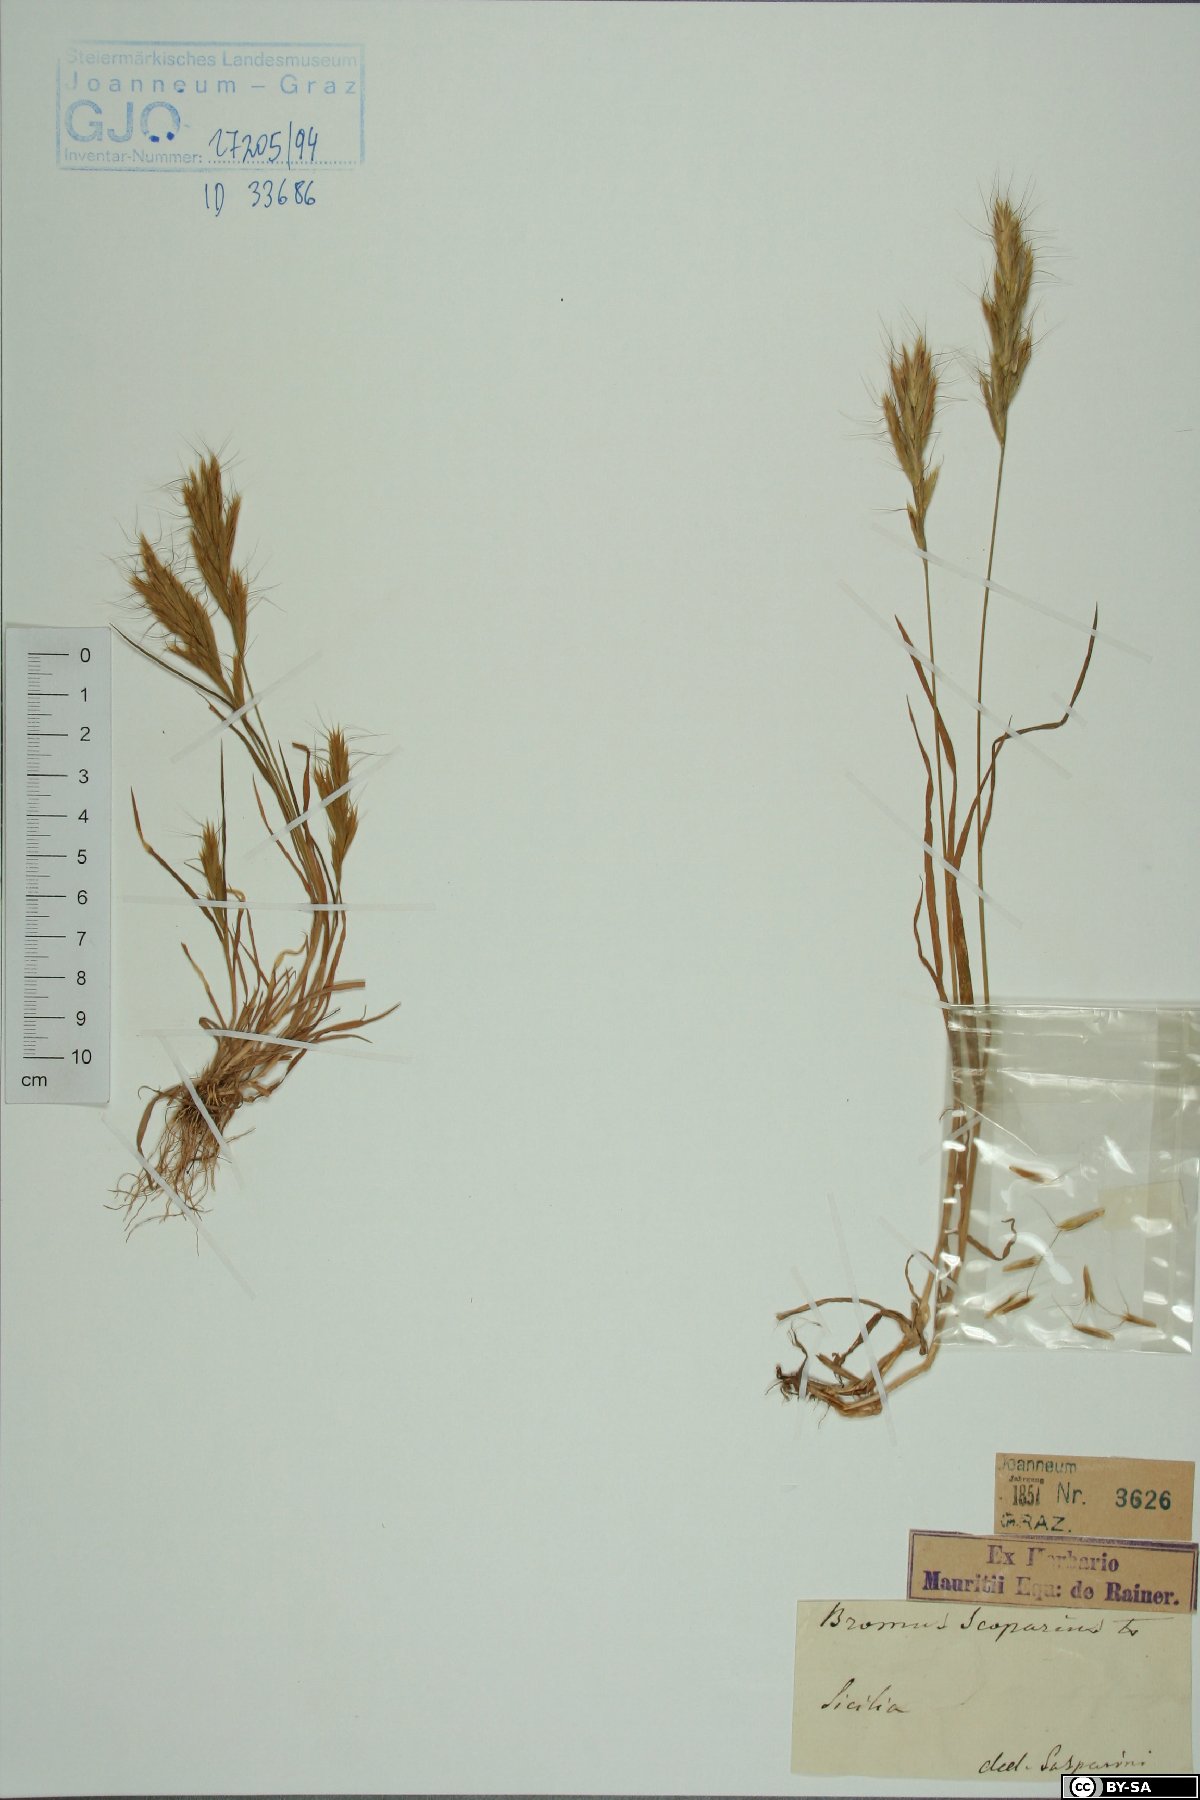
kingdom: Plantae
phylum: Tracheophyta
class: Liliopsida
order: Poales
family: Poaceae
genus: Bromus
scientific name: Bromus scoparius
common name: Broom brome
